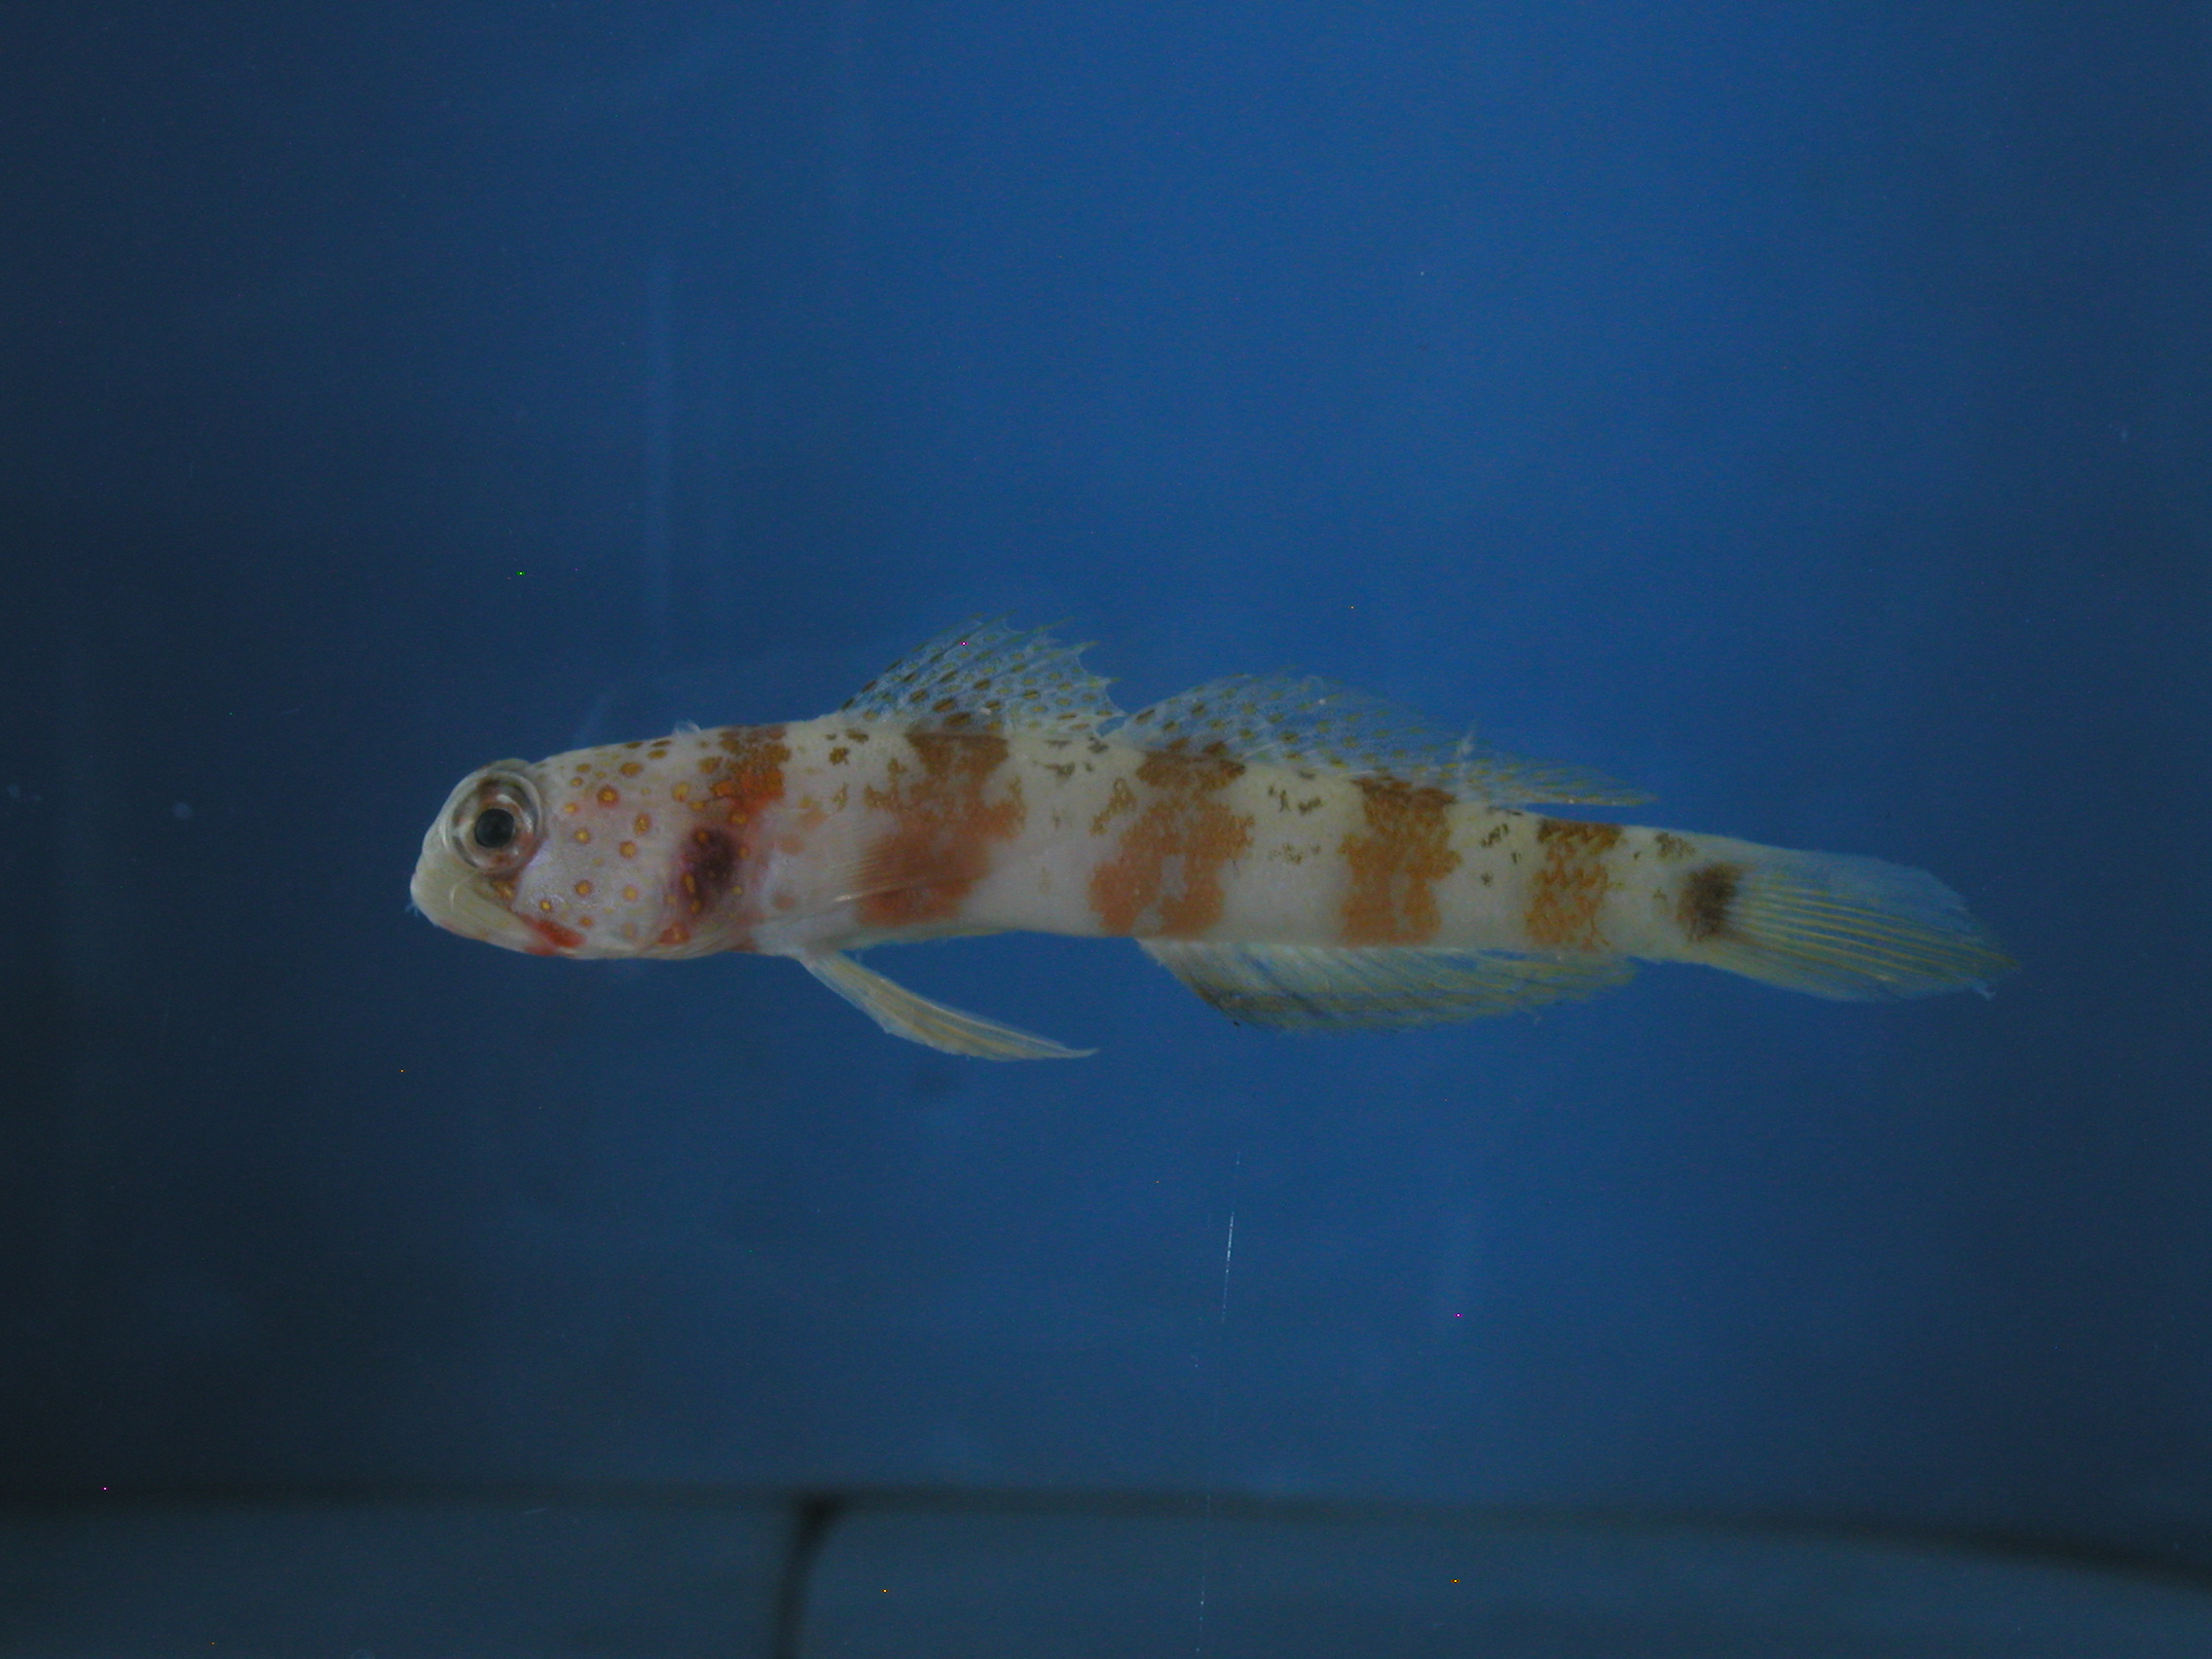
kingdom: Animalia
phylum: Chordata
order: Perciformes
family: Gobiidae
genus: Amblyeleotris
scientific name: Amblyeleotris periophthalma
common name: Periophthalma prawn-goby
